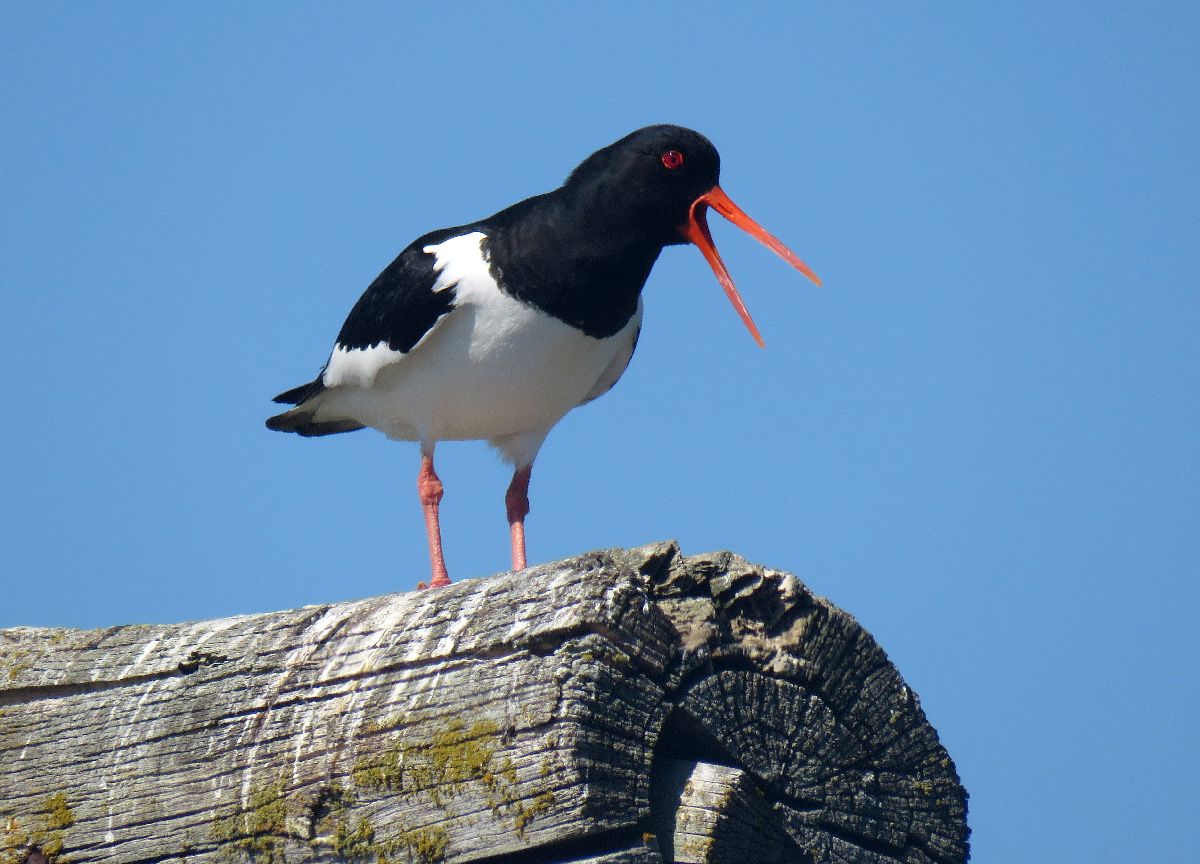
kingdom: Animalia
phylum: Chordata
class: Aves
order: Charadriiformes
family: Haematopodidae
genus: Haematopus
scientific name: Haematopus ostralegus
